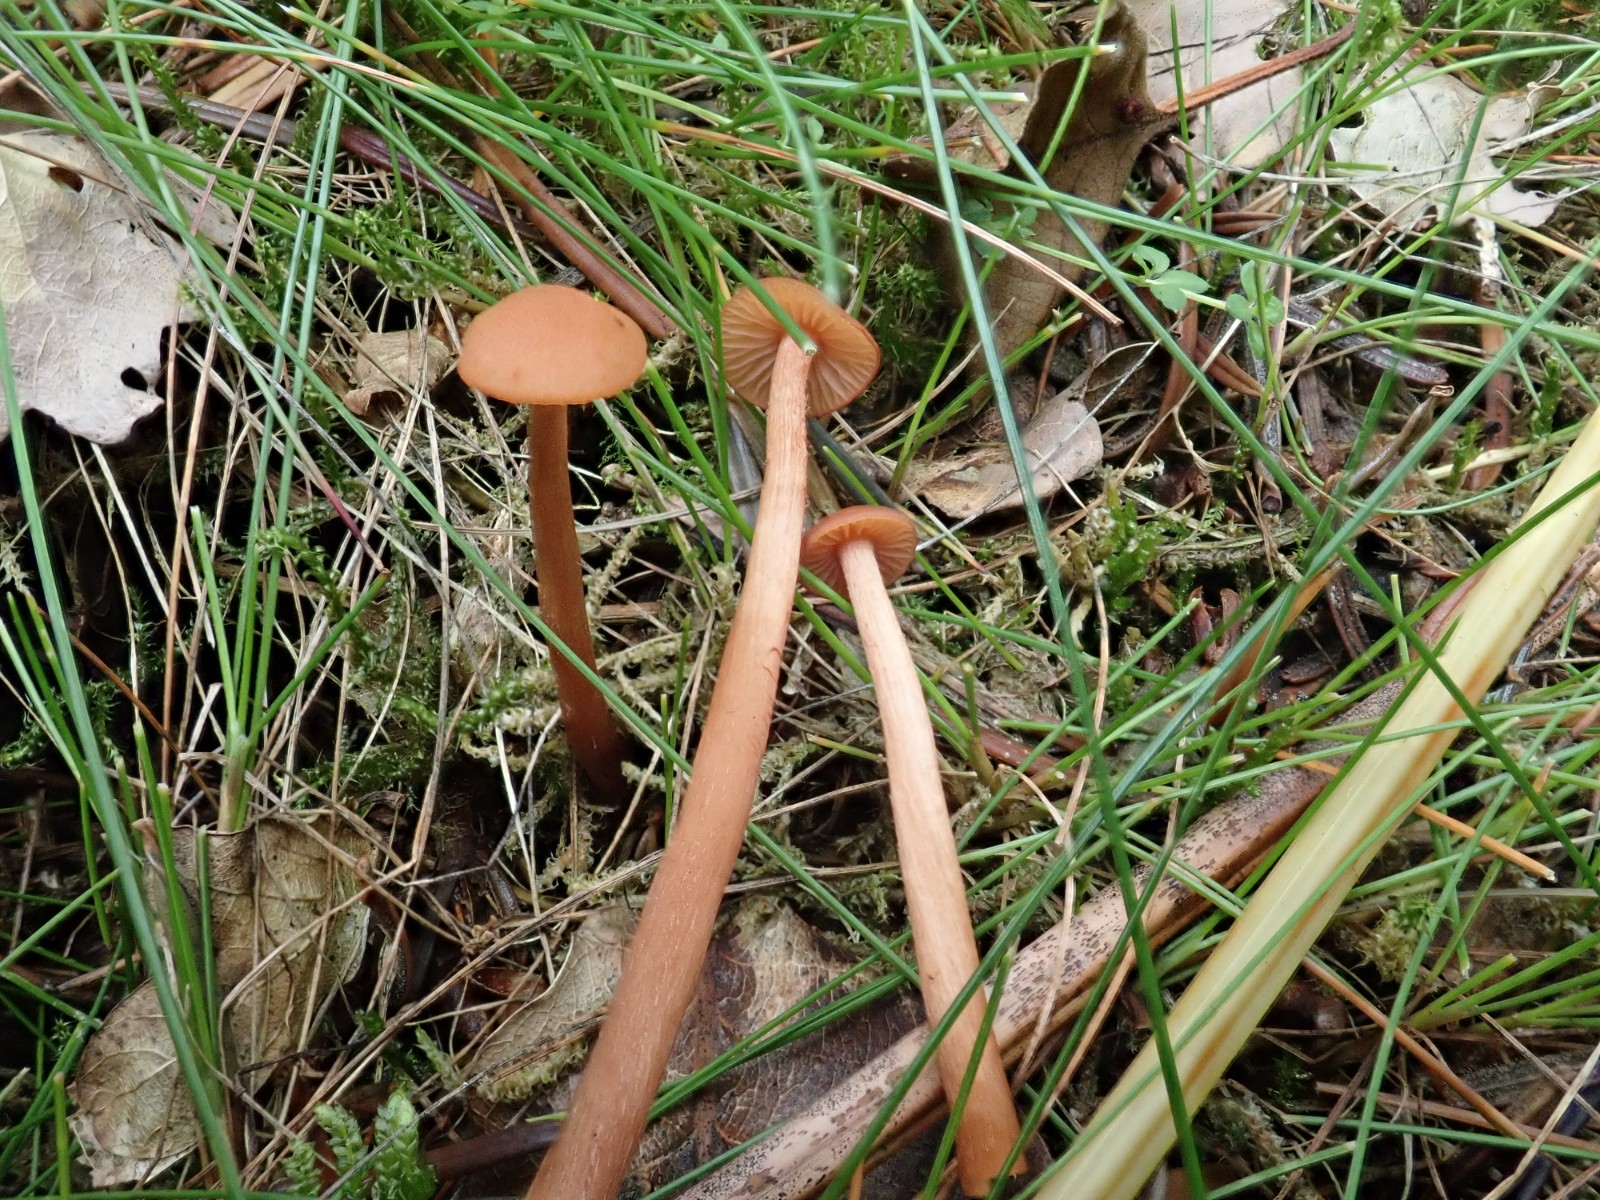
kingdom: Fungi
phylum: Basidiomycota
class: Agaricomycetes
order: Agaricales
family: Hydnangiaceae
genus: Laccaria
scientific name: Laccaria laccata
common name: rød ametysthat
